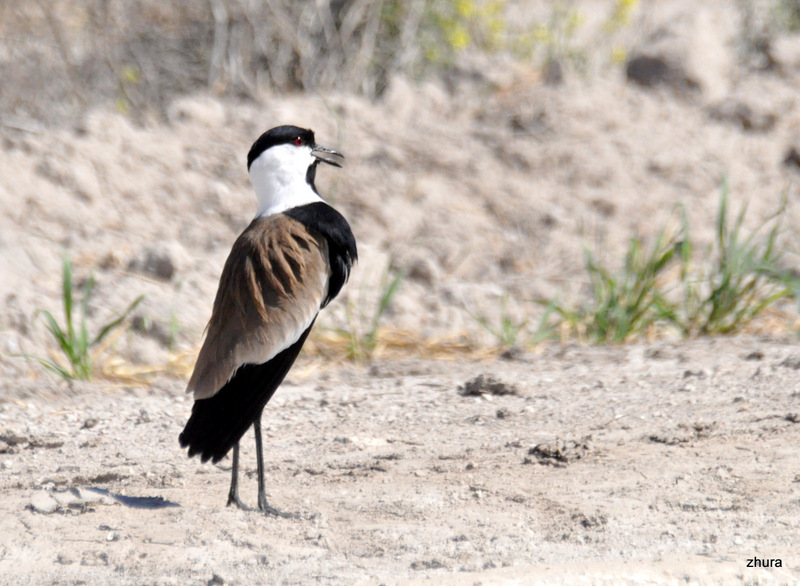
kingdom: Animalia
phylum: Chordata
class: Aves
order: Charadriiformes
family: Charadriidae
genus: Vanellus
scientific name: Vanellus spinosus
